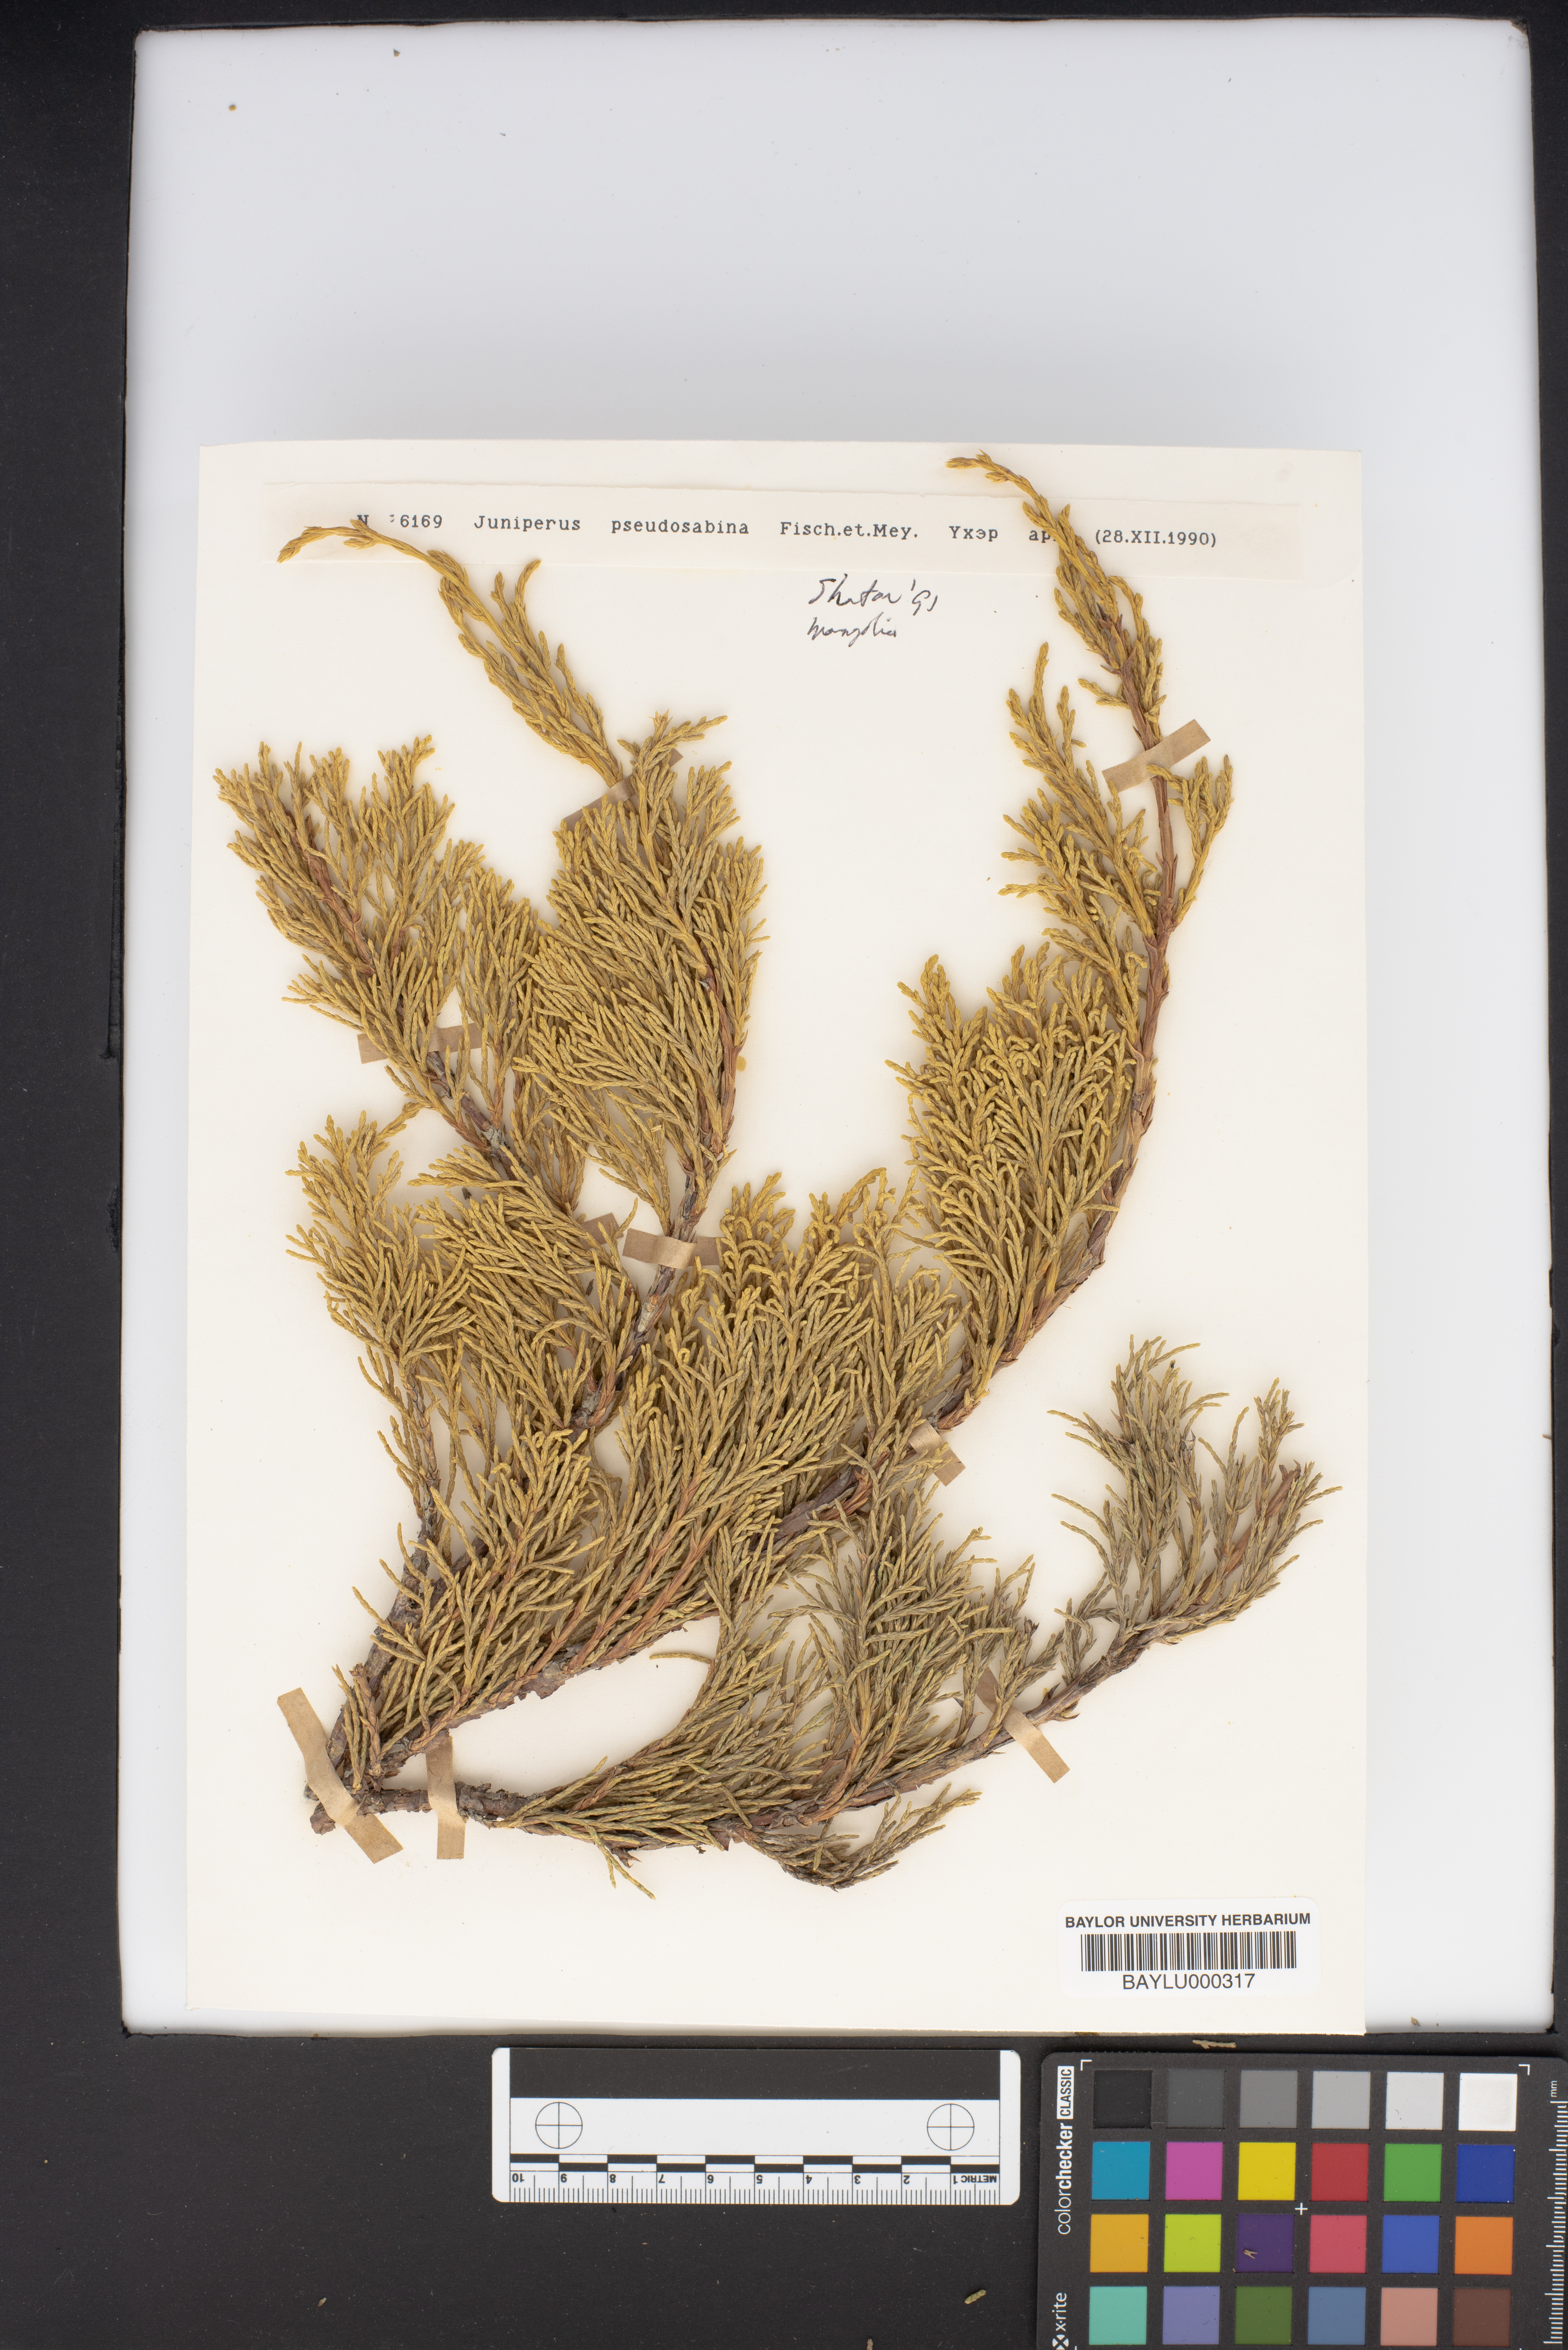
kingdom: Plantae
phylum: Tracheophyta
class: Pinopsida
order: Pinales
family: Cupressaceae
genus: Juniperus
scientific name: Juniperus pseudosabina
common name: Turkestan juniper
